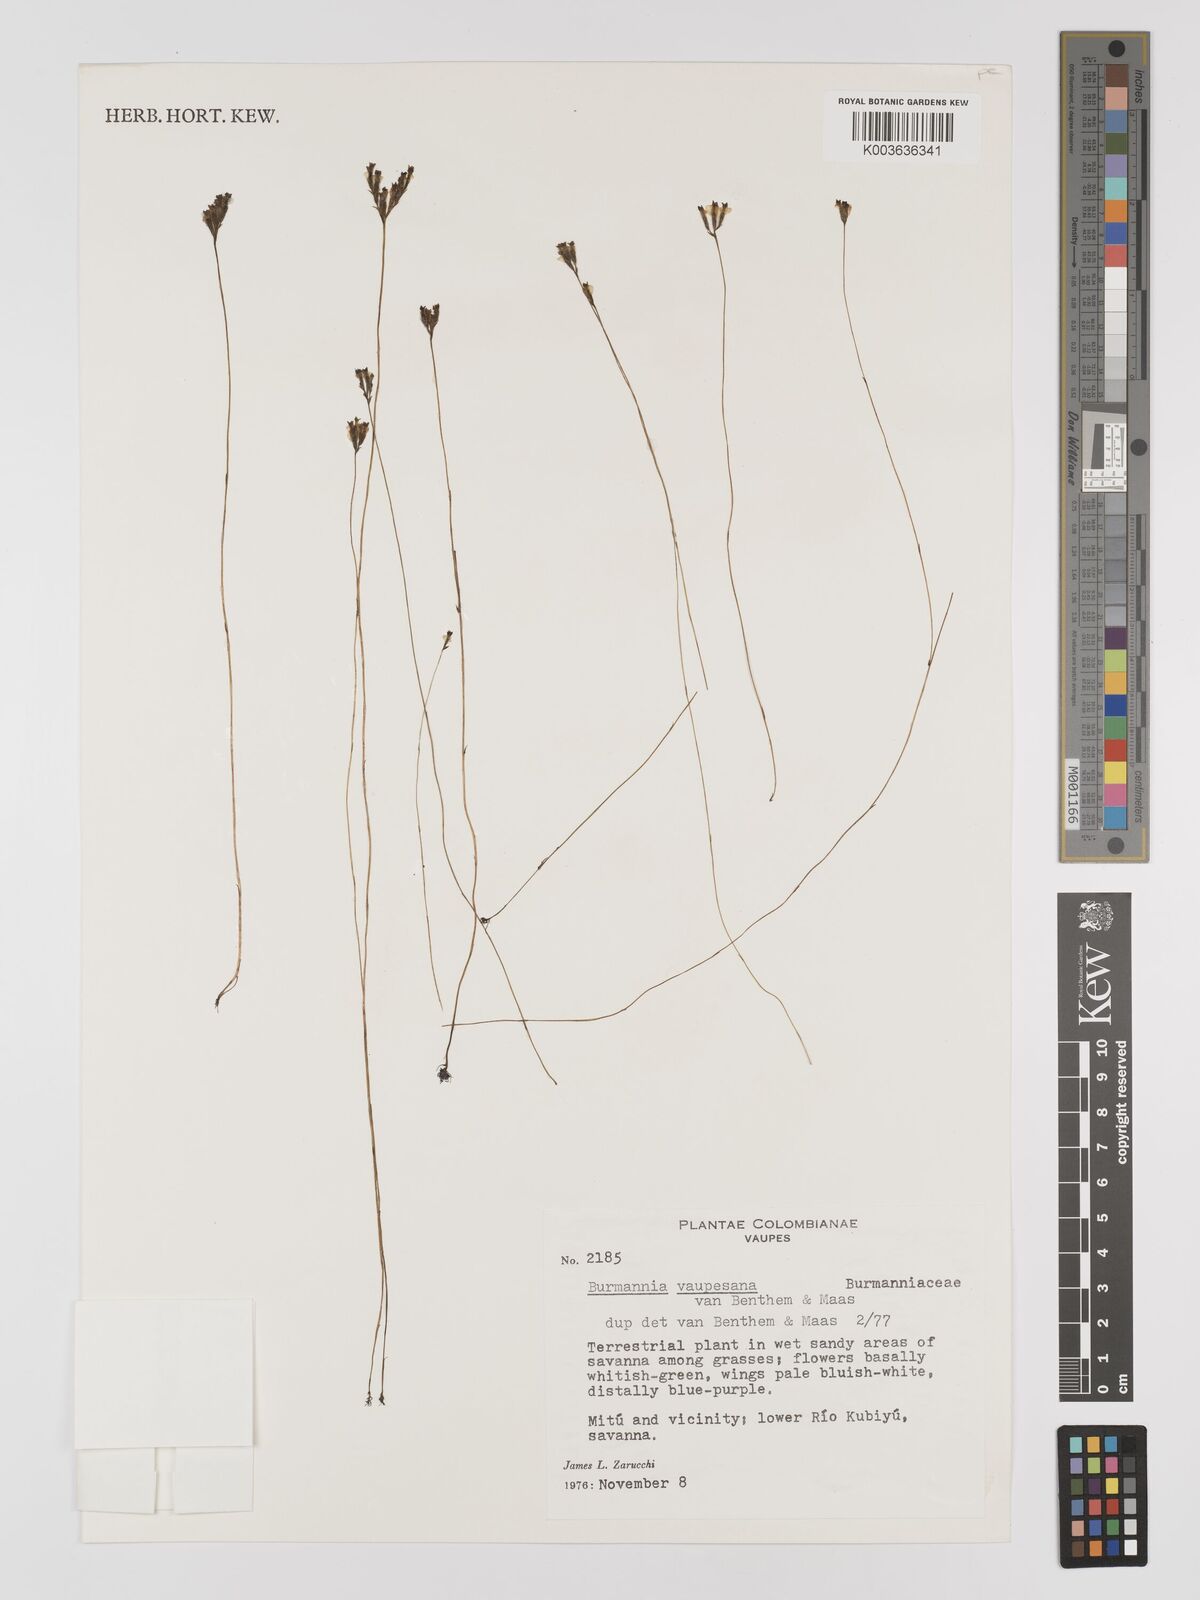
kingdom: Plantae
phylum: Tracheophyta
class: Liliopsida
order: Dioscoreales
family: Burmanniaceae
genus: Burmannia
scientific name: Burmannia vaupesiana
